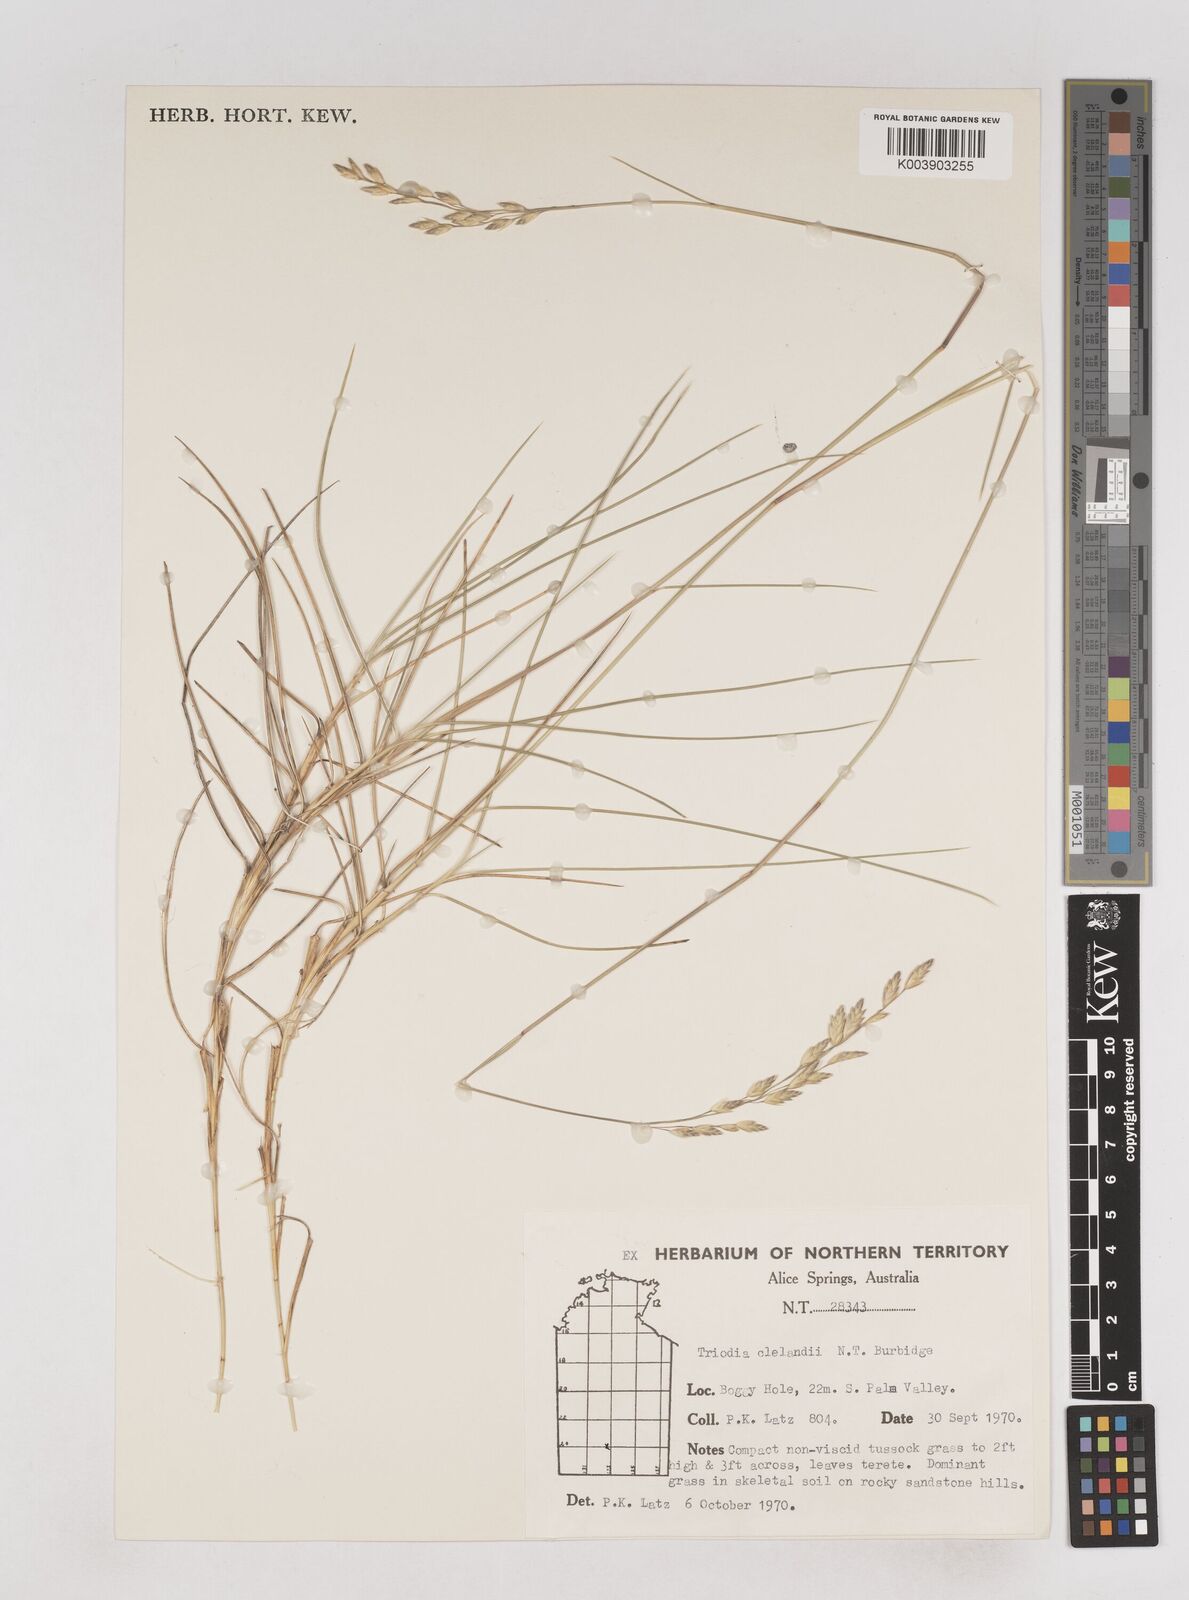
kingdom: Plantae
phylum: Tracheophyta
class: Liliopsida
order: Poales
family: Poaceae
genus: Triodia
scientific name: Triodia brizoides
